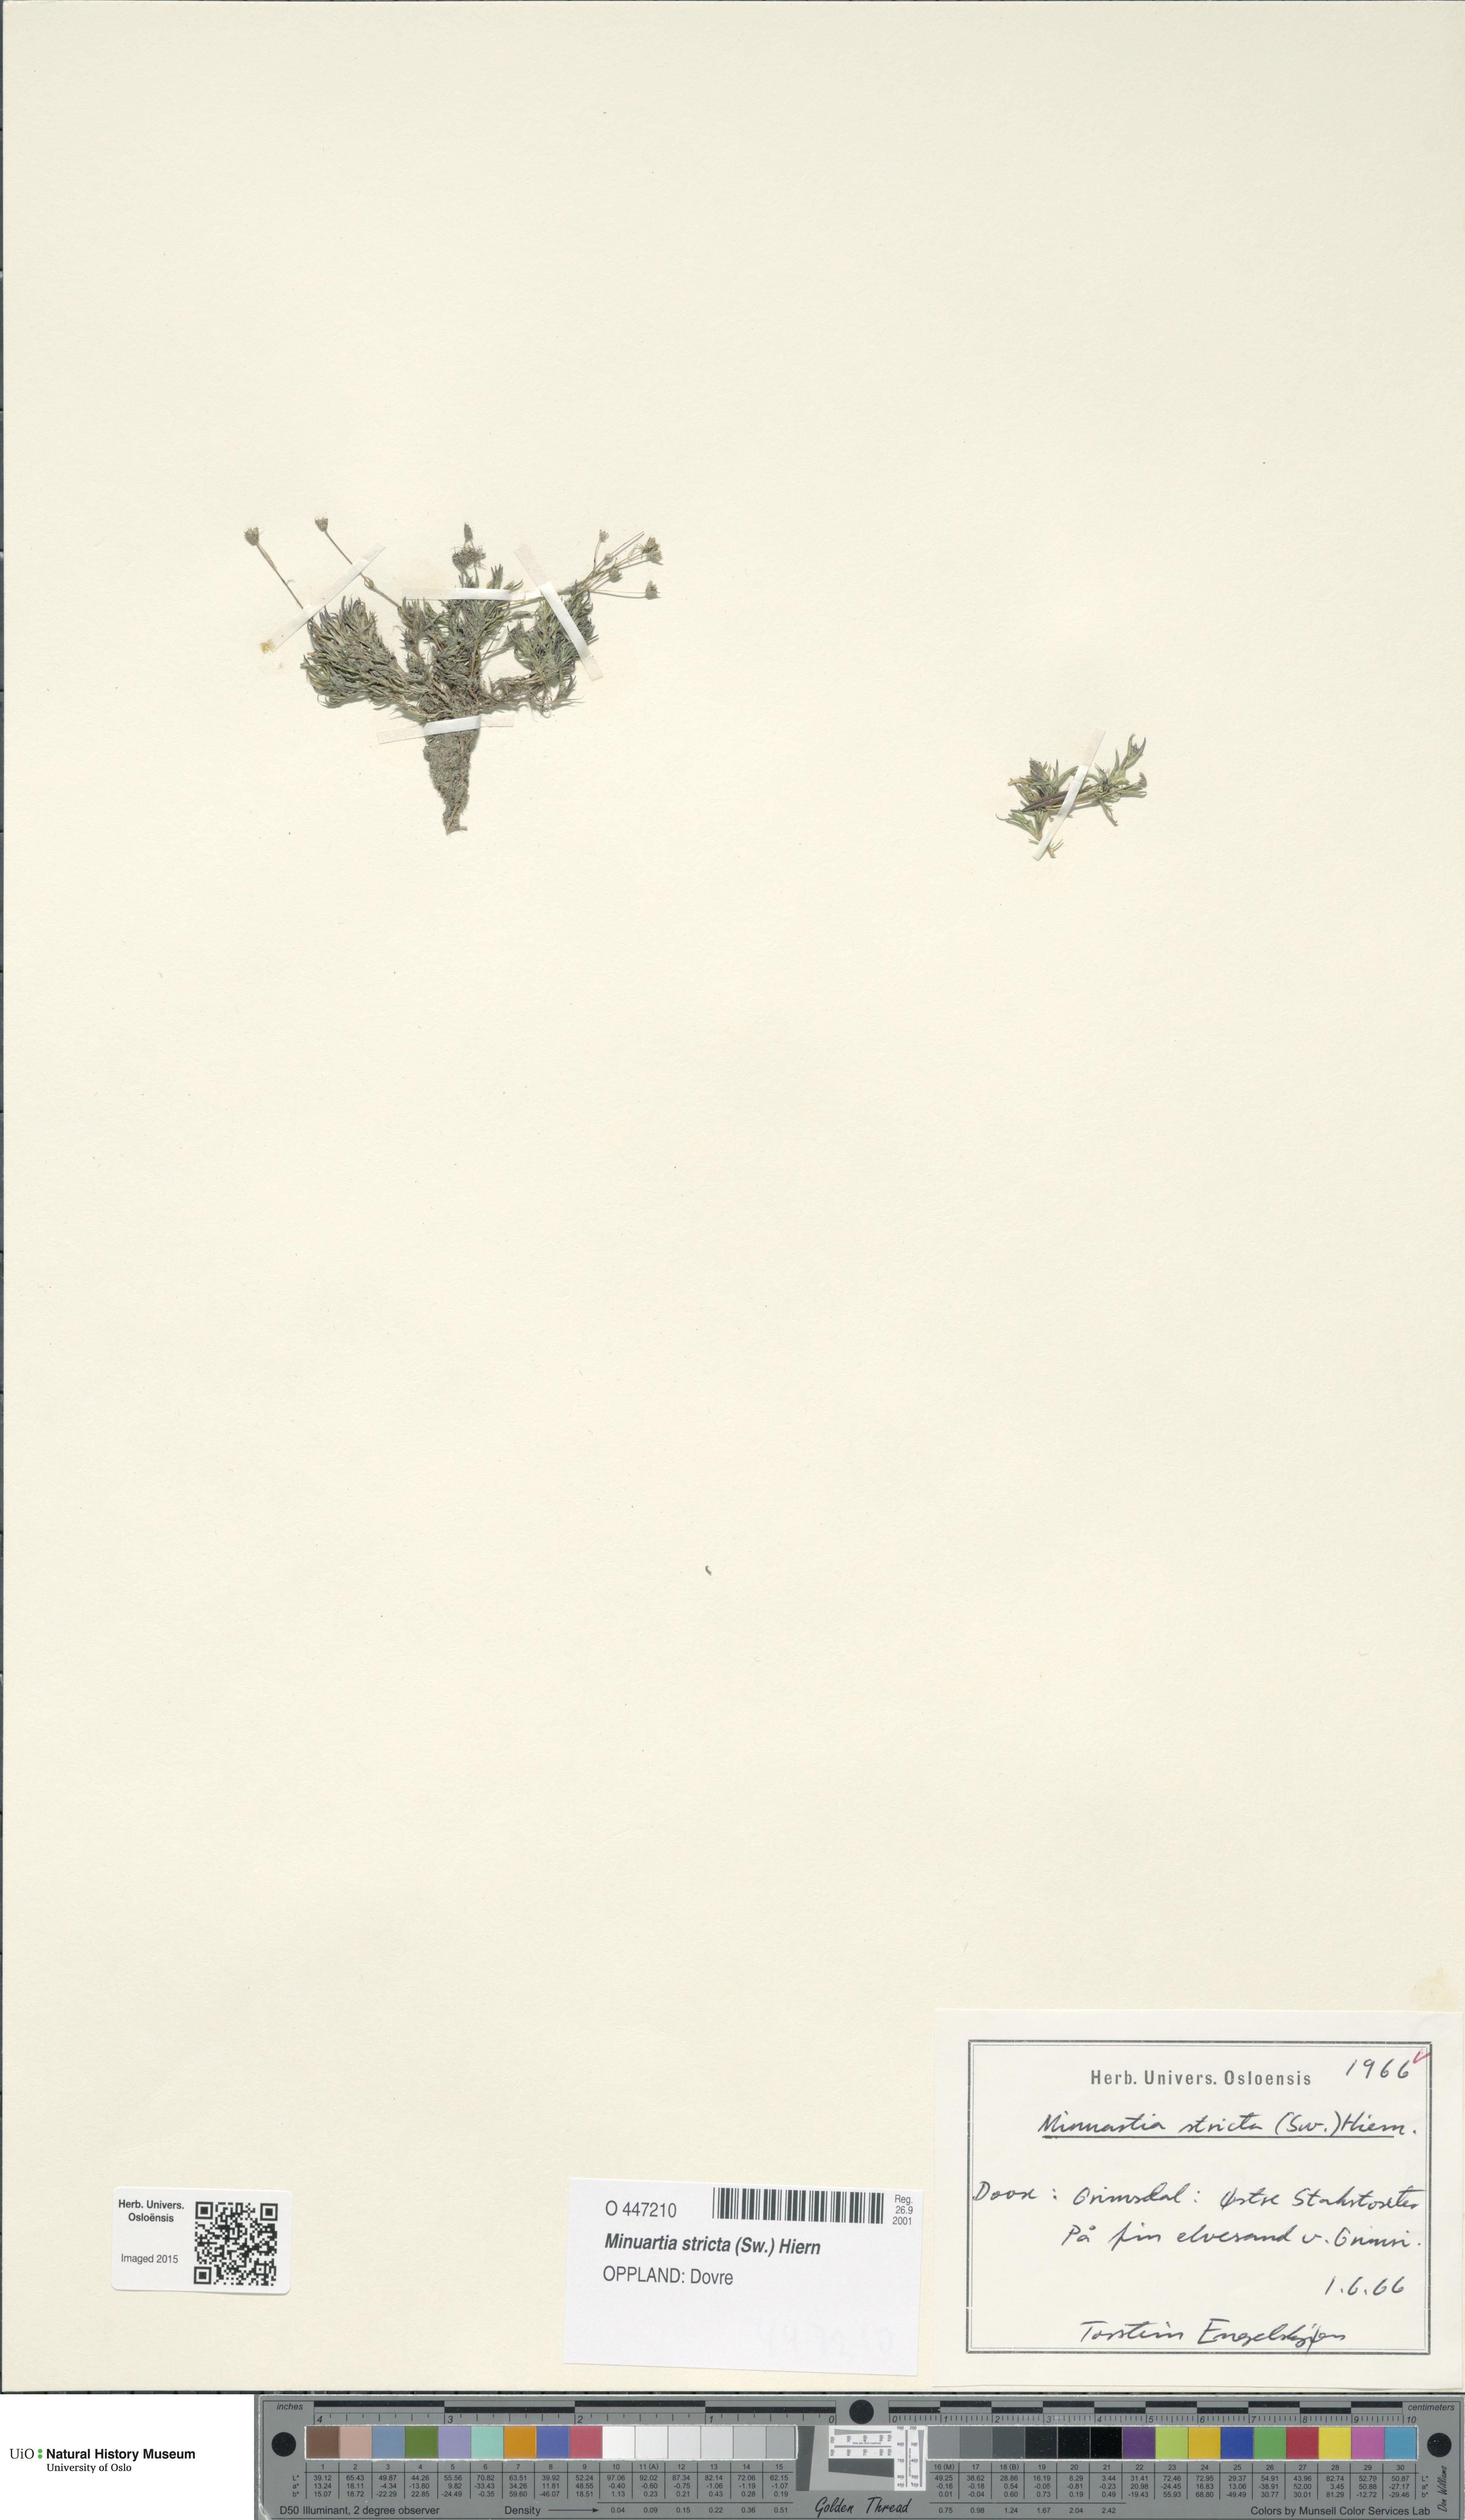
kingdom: Plantae
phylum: Tracheophyta
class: Magnoliopsida
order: Caryophyllales
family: Caryophyllaceae
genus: Sabulina
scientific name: Sabulina stricta
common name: Bog sandwort
